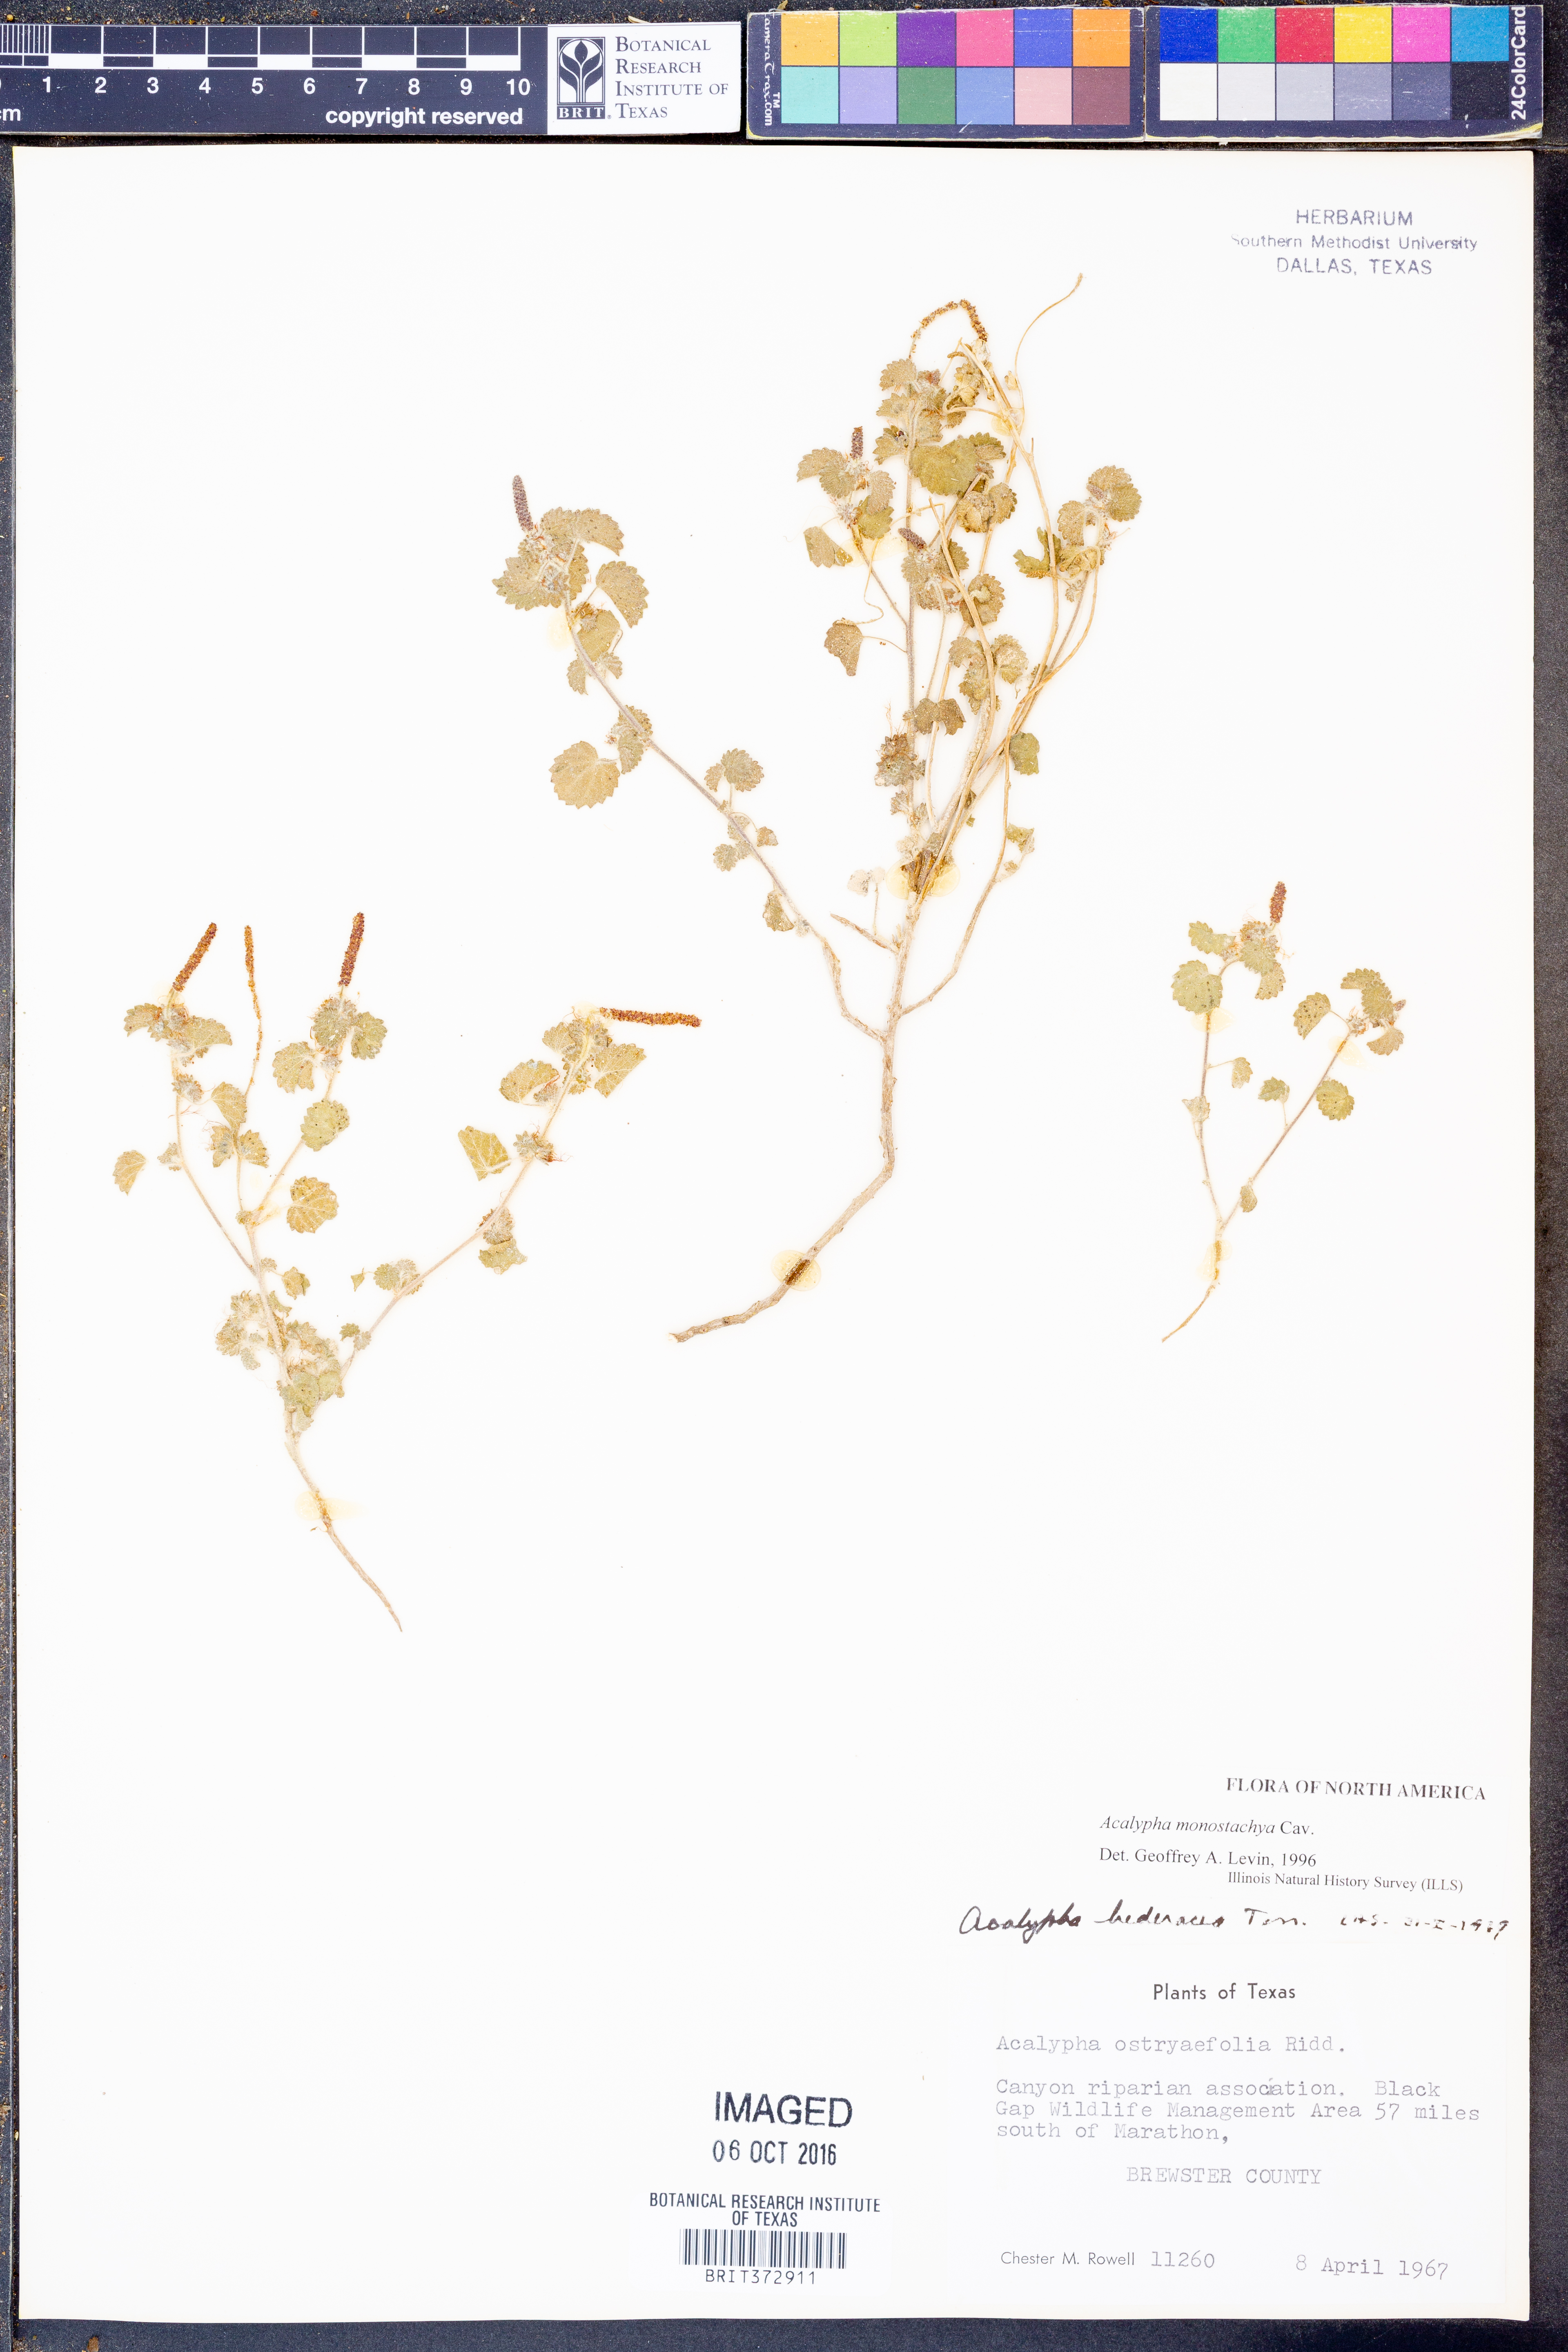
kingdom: Plantae
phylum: Tracheophyta
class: Magnoliopsida
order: Malpighiales
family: Euphorbiaceae
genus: Acalypha
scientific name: Acalypha monostachya
